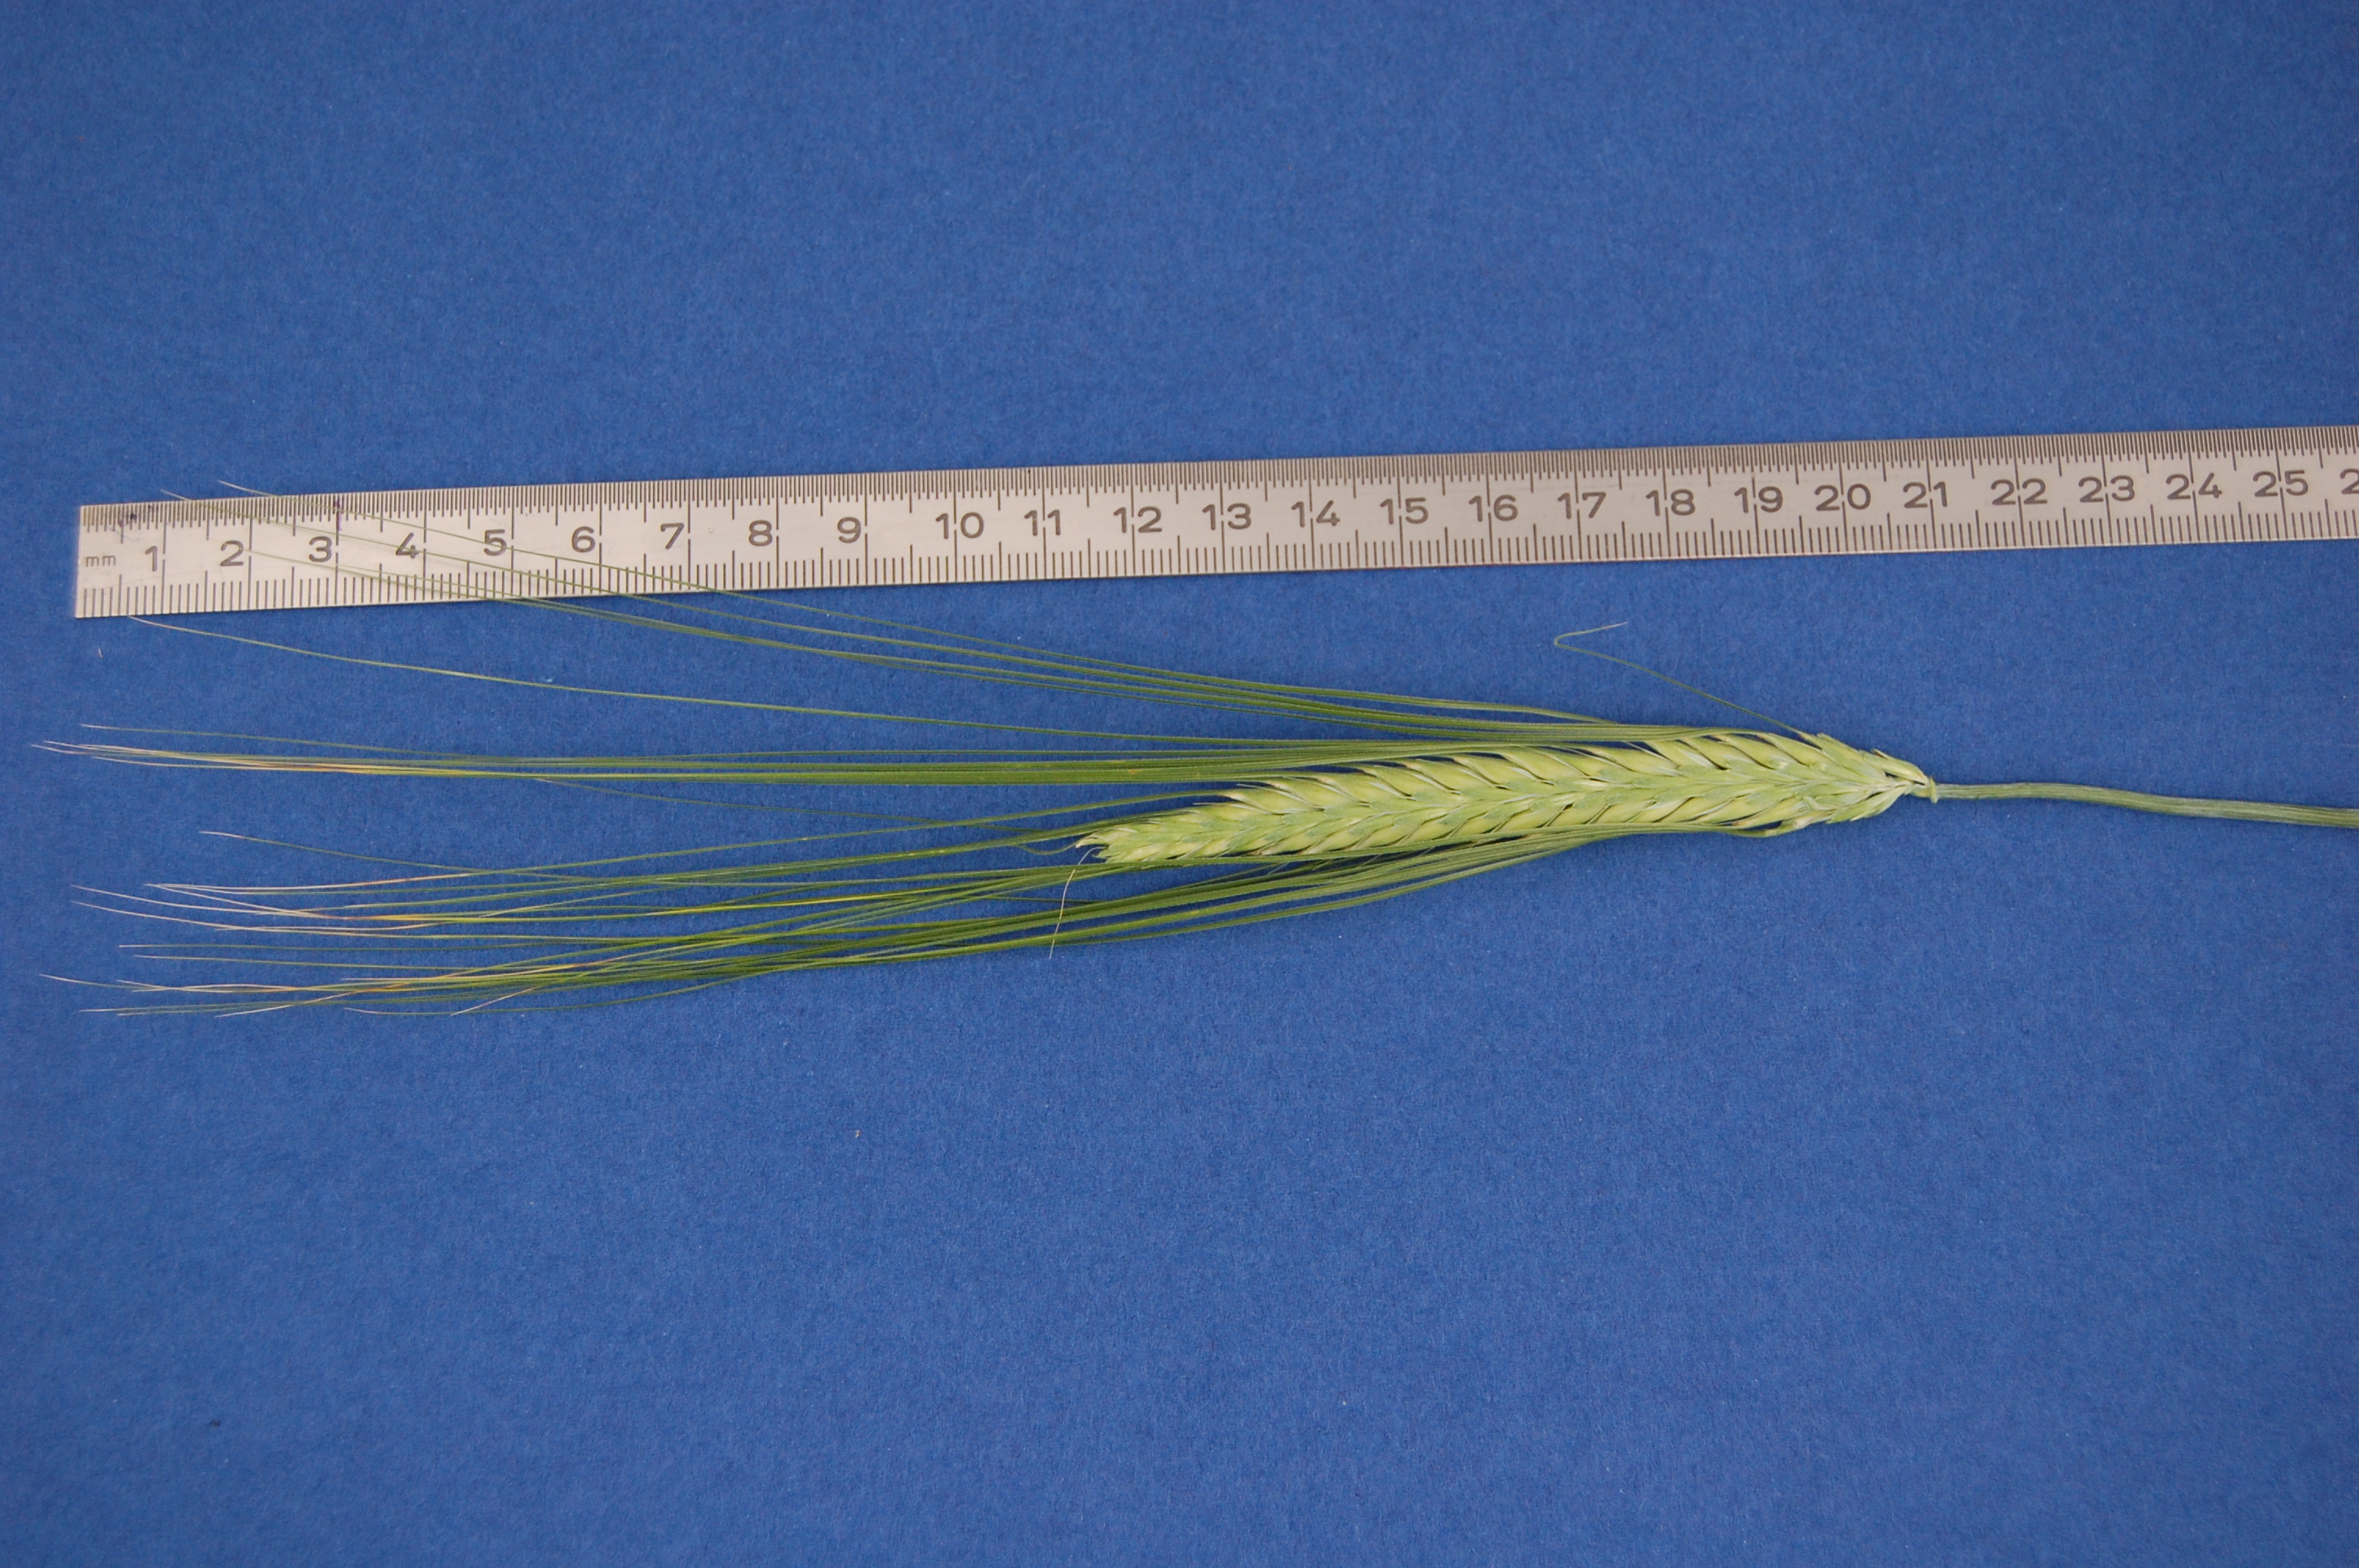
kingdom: Plantae
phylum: Tracheophyta
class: Liliopsida
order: Poales
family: Poaceae
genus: Hordeum
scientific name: Hordeum vulgare
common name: Common barley
